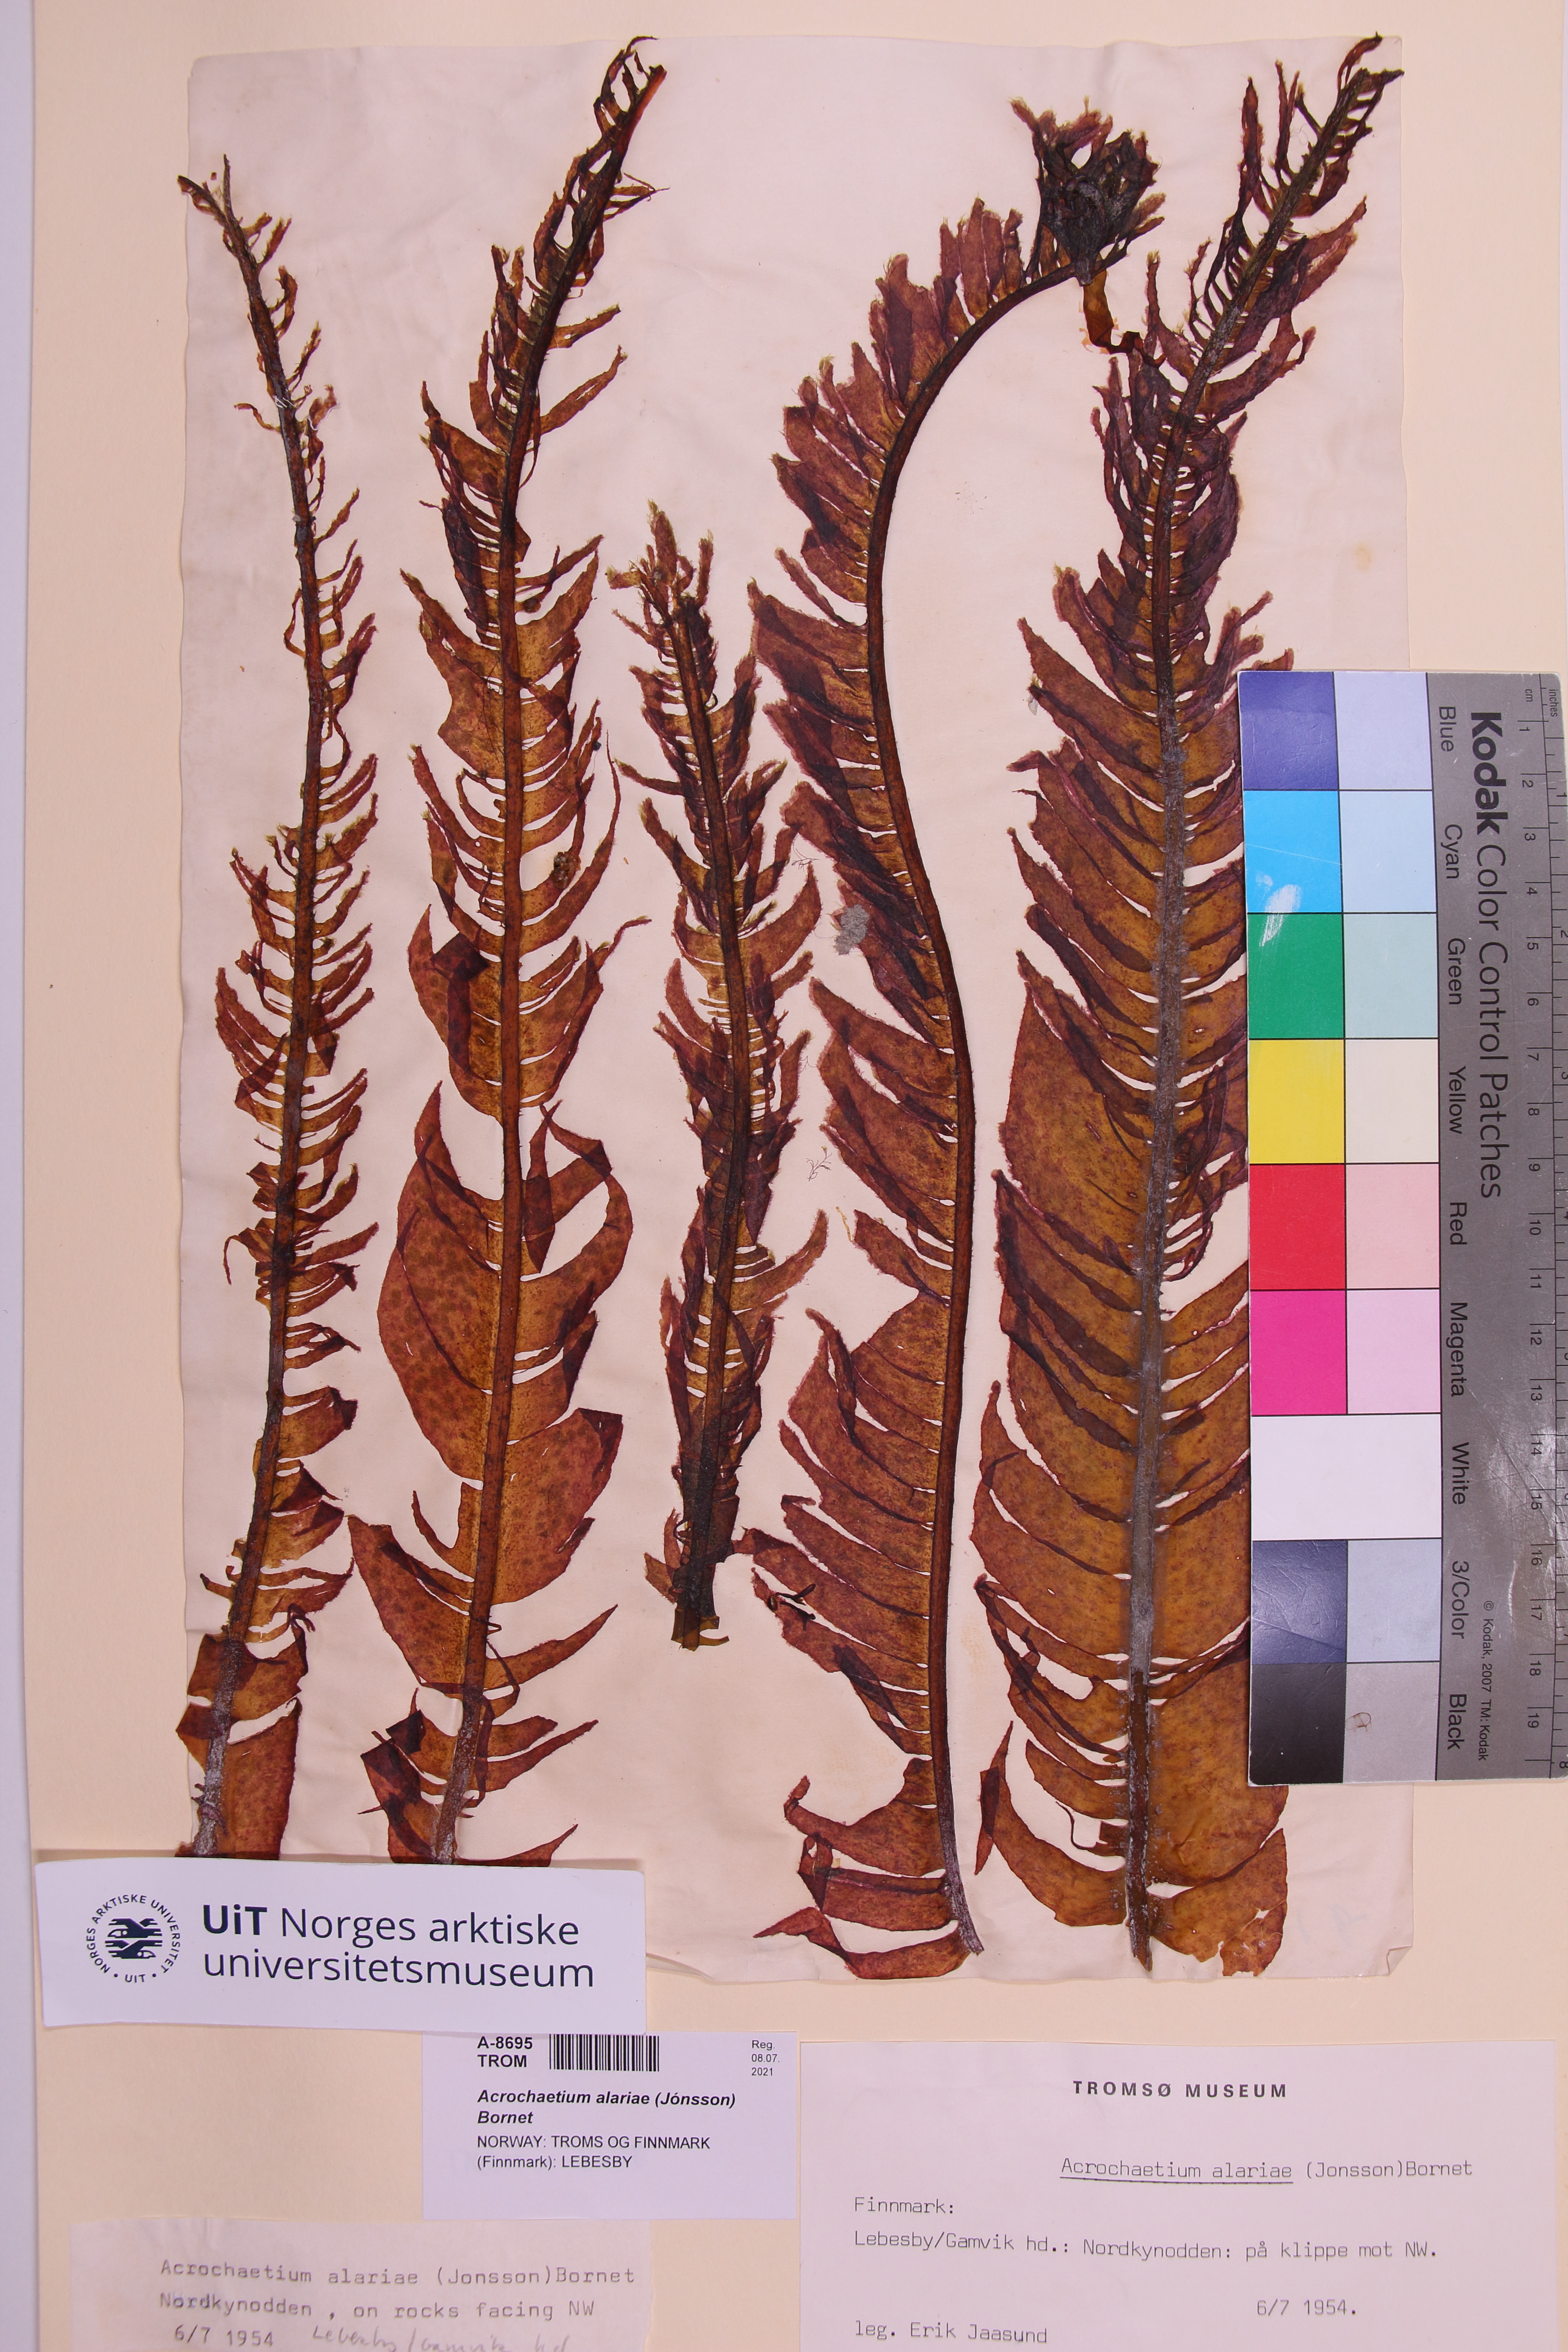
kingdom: Plantae
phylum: Rhodophyta
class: Florideophyceae
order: Acrochaetiales
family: Acrochaetiaceae
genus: Acrochaetium
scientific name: Acrochaetium alariae
